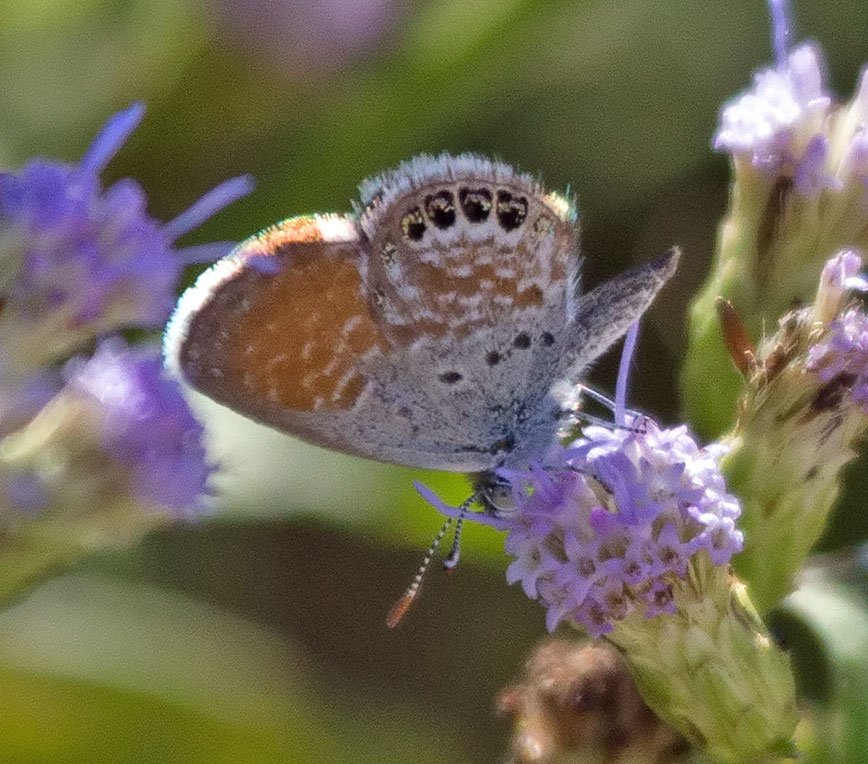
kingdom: Animalia
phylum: Arthropoda
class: Insecta
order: Lepidoptera
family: Lycaenidae
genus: Brephidium
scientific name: Brephidium exilis
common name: Western Pygmy-Blue
